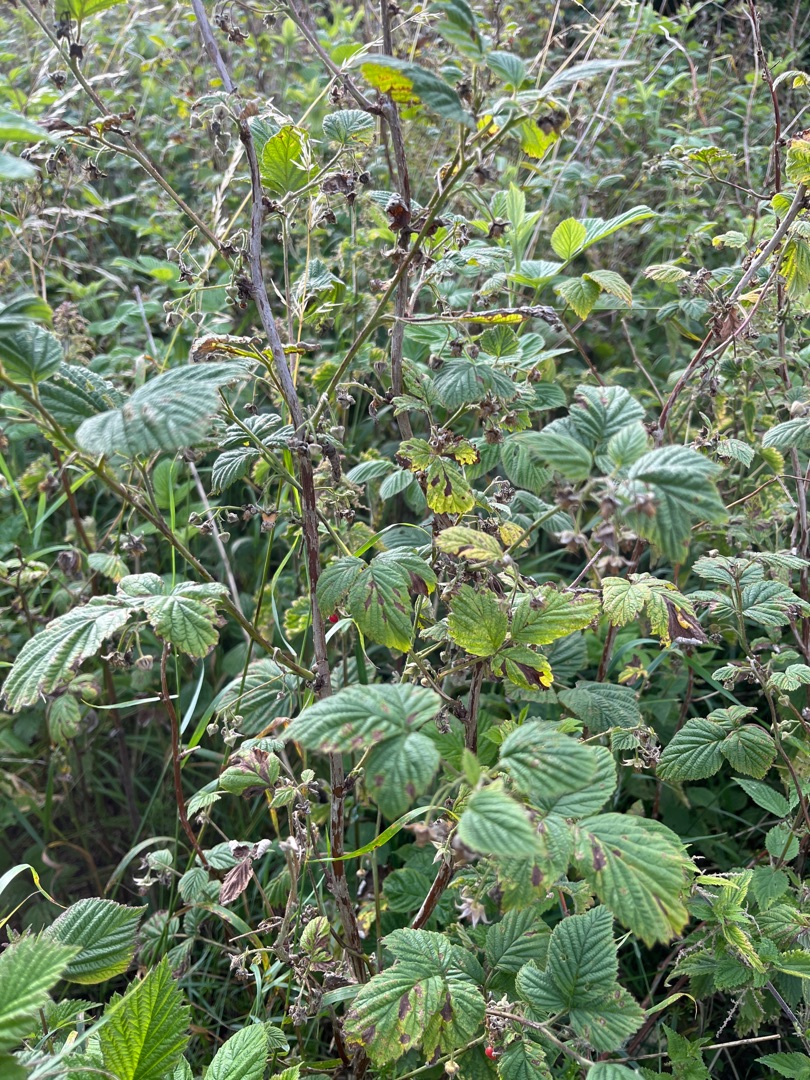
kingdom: Plantae
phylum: Tracheophyta
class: Magnoliopsida
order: Rosales
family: Rosaceae
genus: Rubus
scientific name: Rubus idaeus
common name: Hindbær
